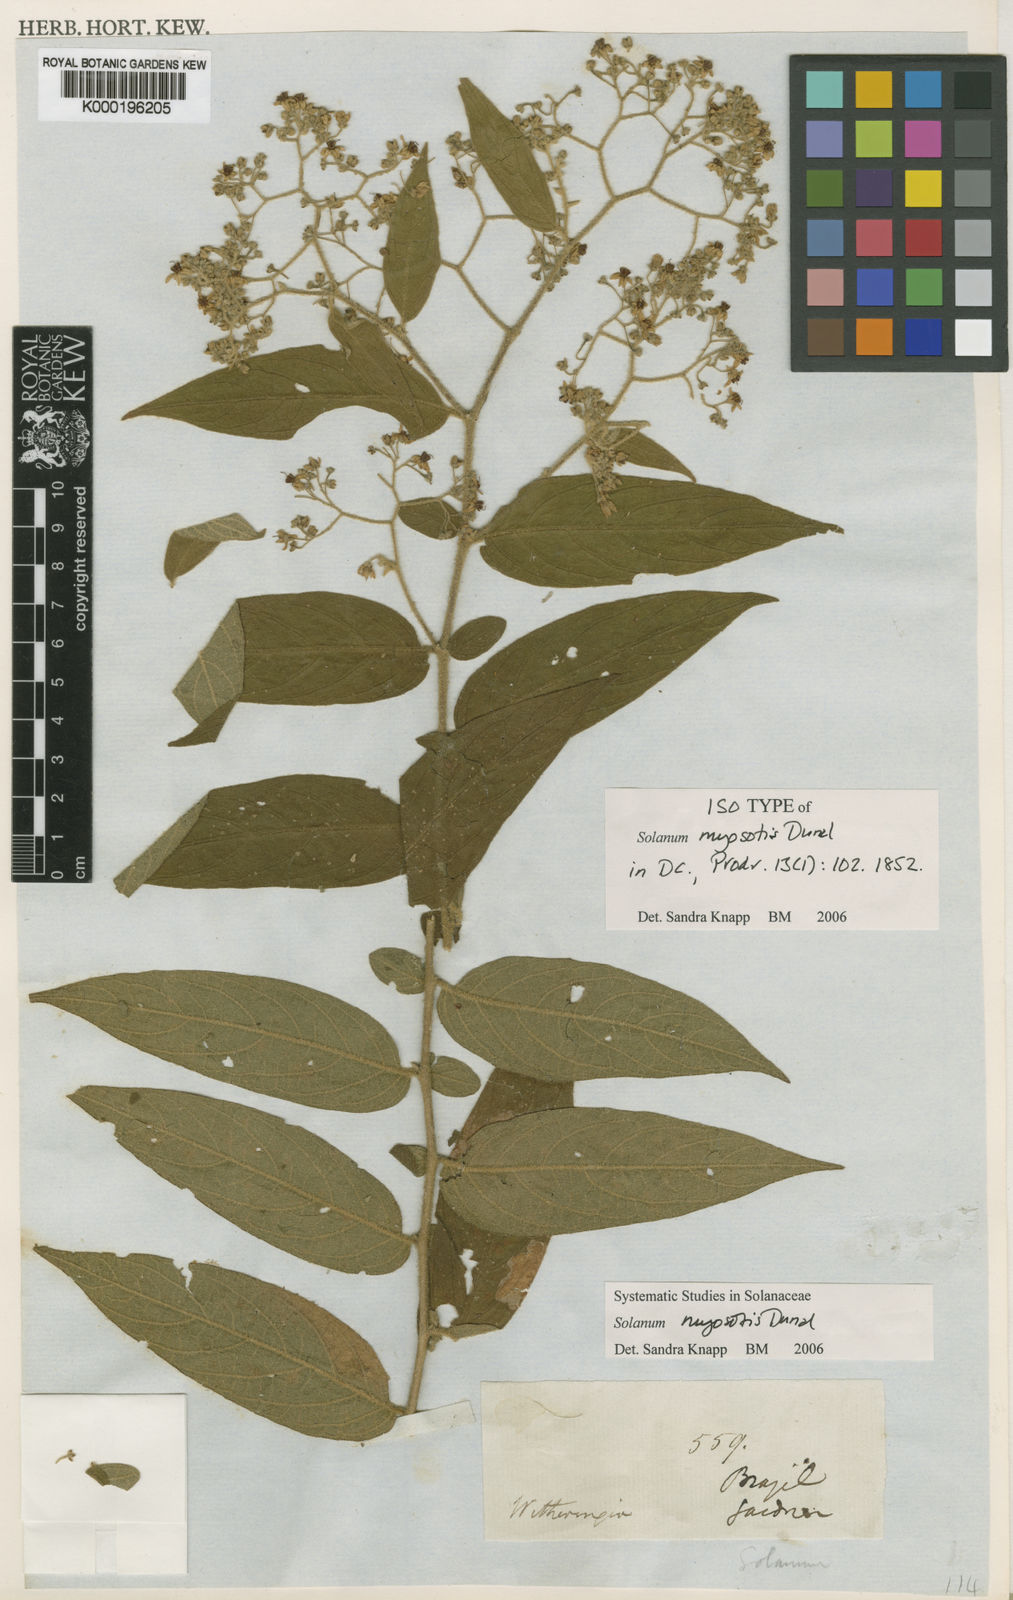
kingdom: Plantae
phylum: Tracheophyta
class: Magnoliopsida
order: Solanales
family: Solanaceae
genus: Solanum
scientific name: Solanum lantana
